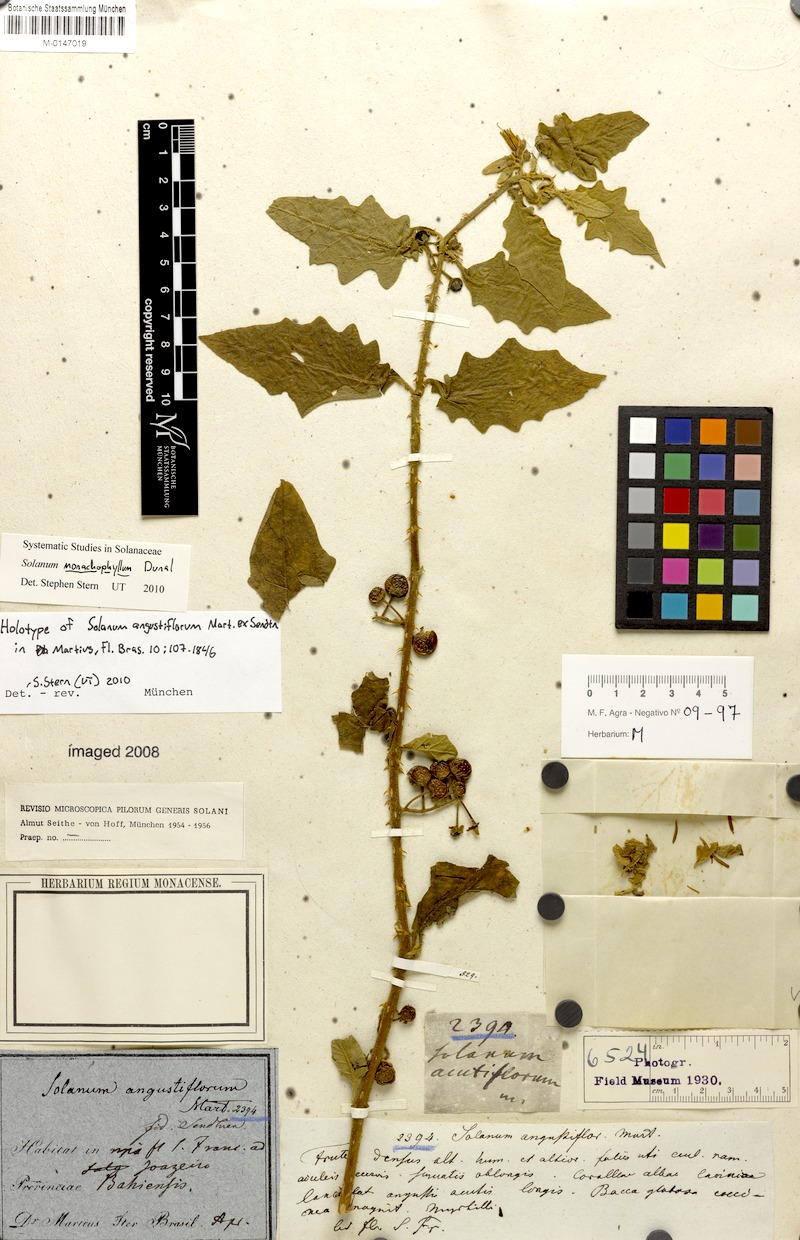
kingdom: Plantae
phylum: Tracheophyta
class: Magnoliopsida
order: Solanales
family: Solanaceae
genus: Solanum
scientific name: Solanum monachophyllum
